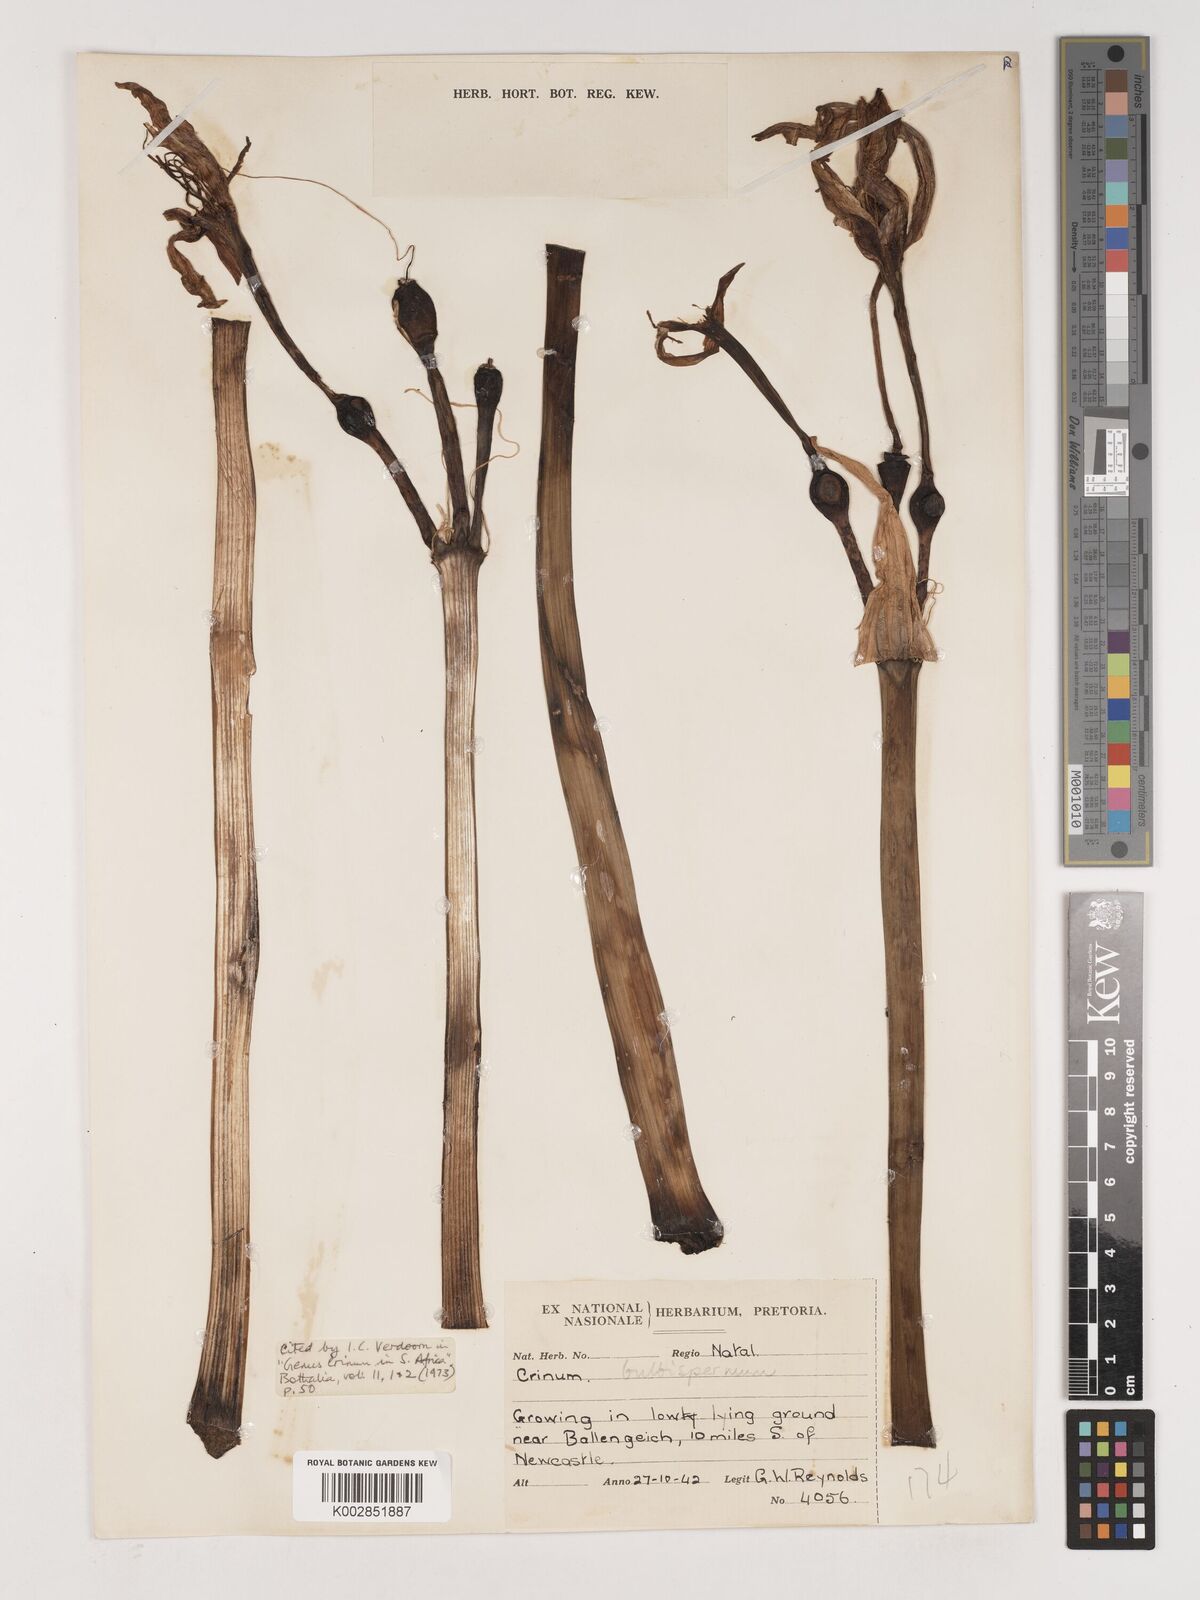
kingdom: Plantae
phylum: Tracheophyta
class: Liliopsida
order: Asparagales
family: Amaryllidaceae
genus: Crinum
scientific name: Crinum bulbispermum
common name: Hardy swamplily
